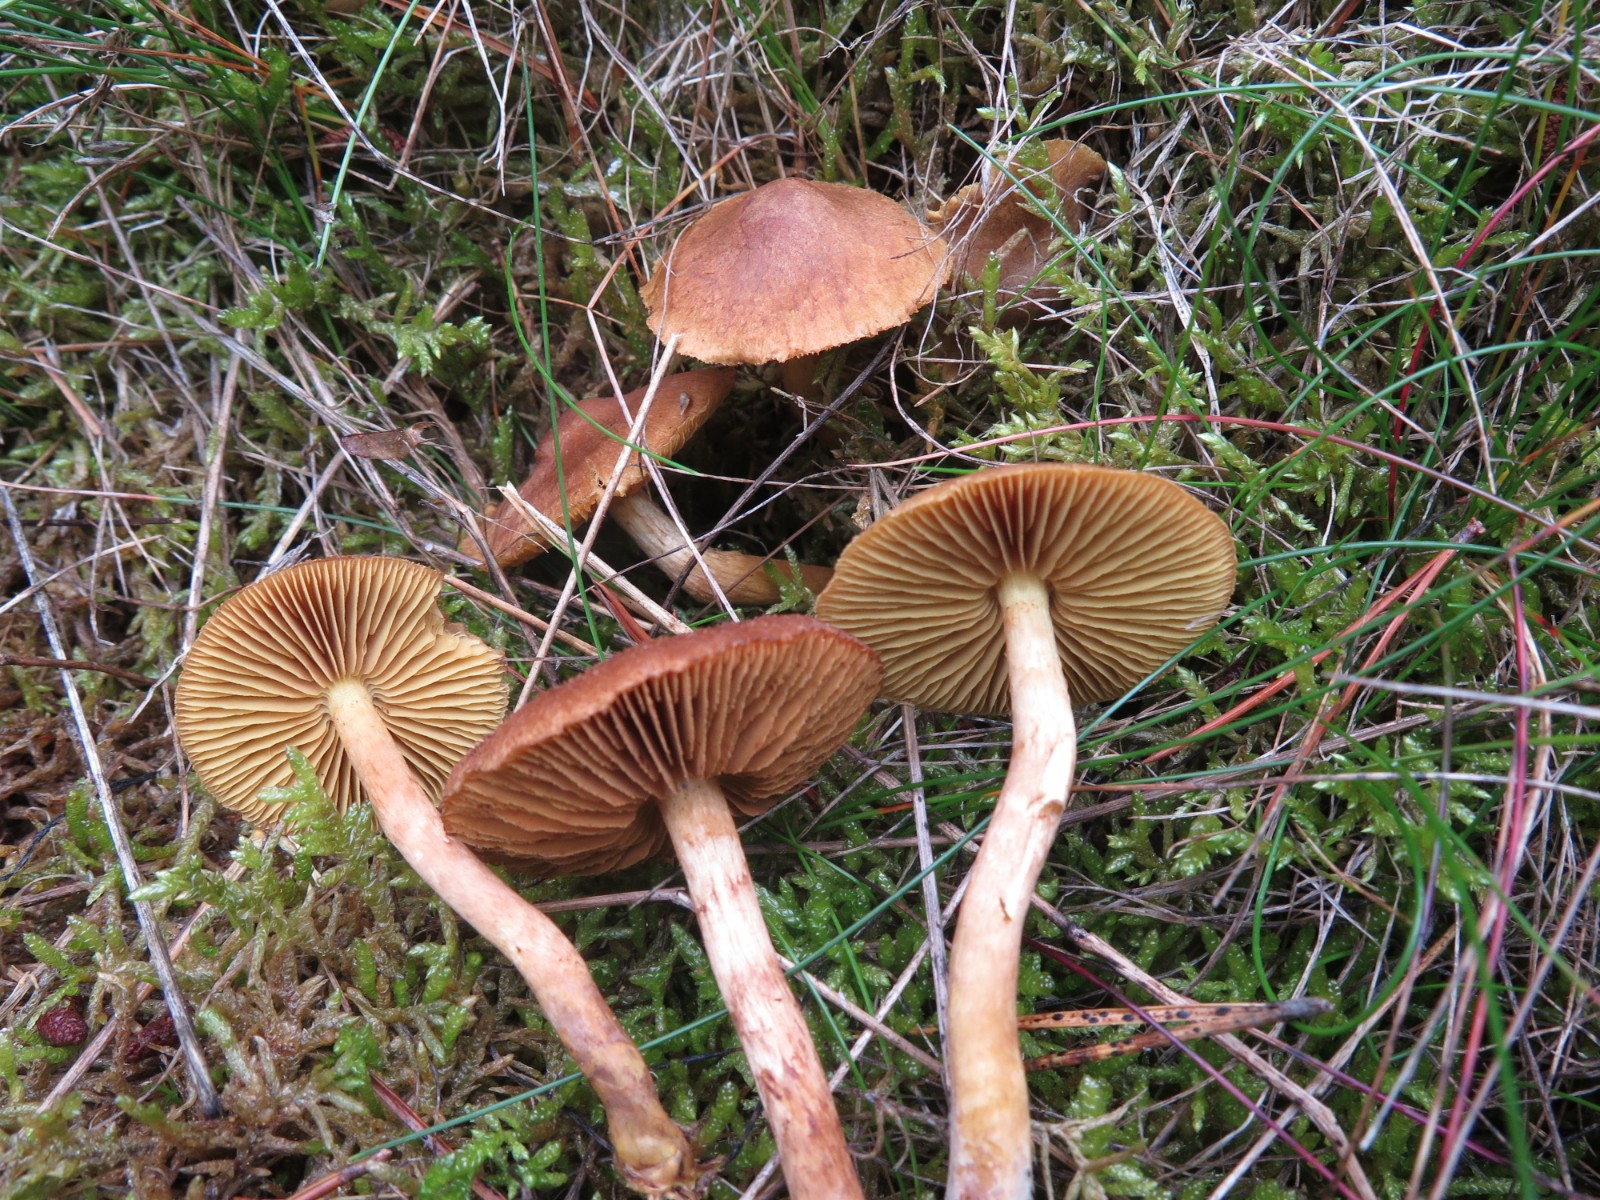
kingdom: Fungi
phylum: Basidiomycota
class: Agaricomycetes
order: Agaricales
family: Cortinariaceae
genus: Cortinarius
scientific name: Cortinarius bataillei
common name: orangefodet slørhat
